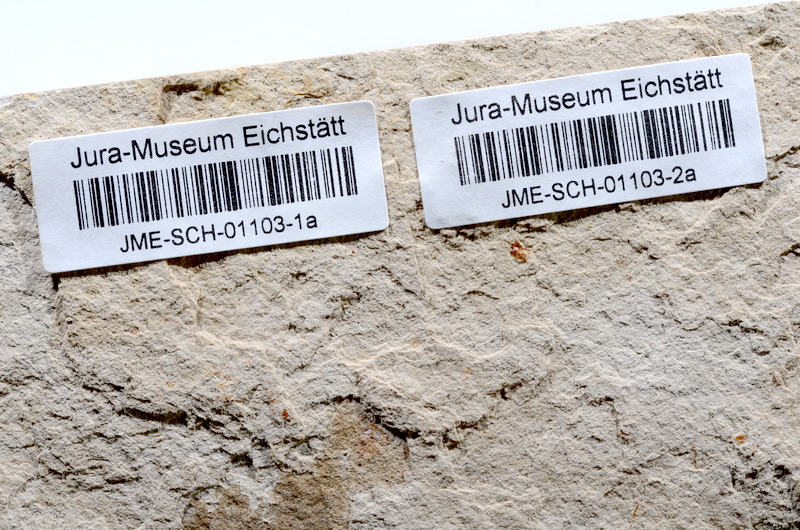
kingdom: Animalia
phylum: Chordata
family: Ascalaboidae
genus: Tharsis
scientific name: Tharsis dubius
